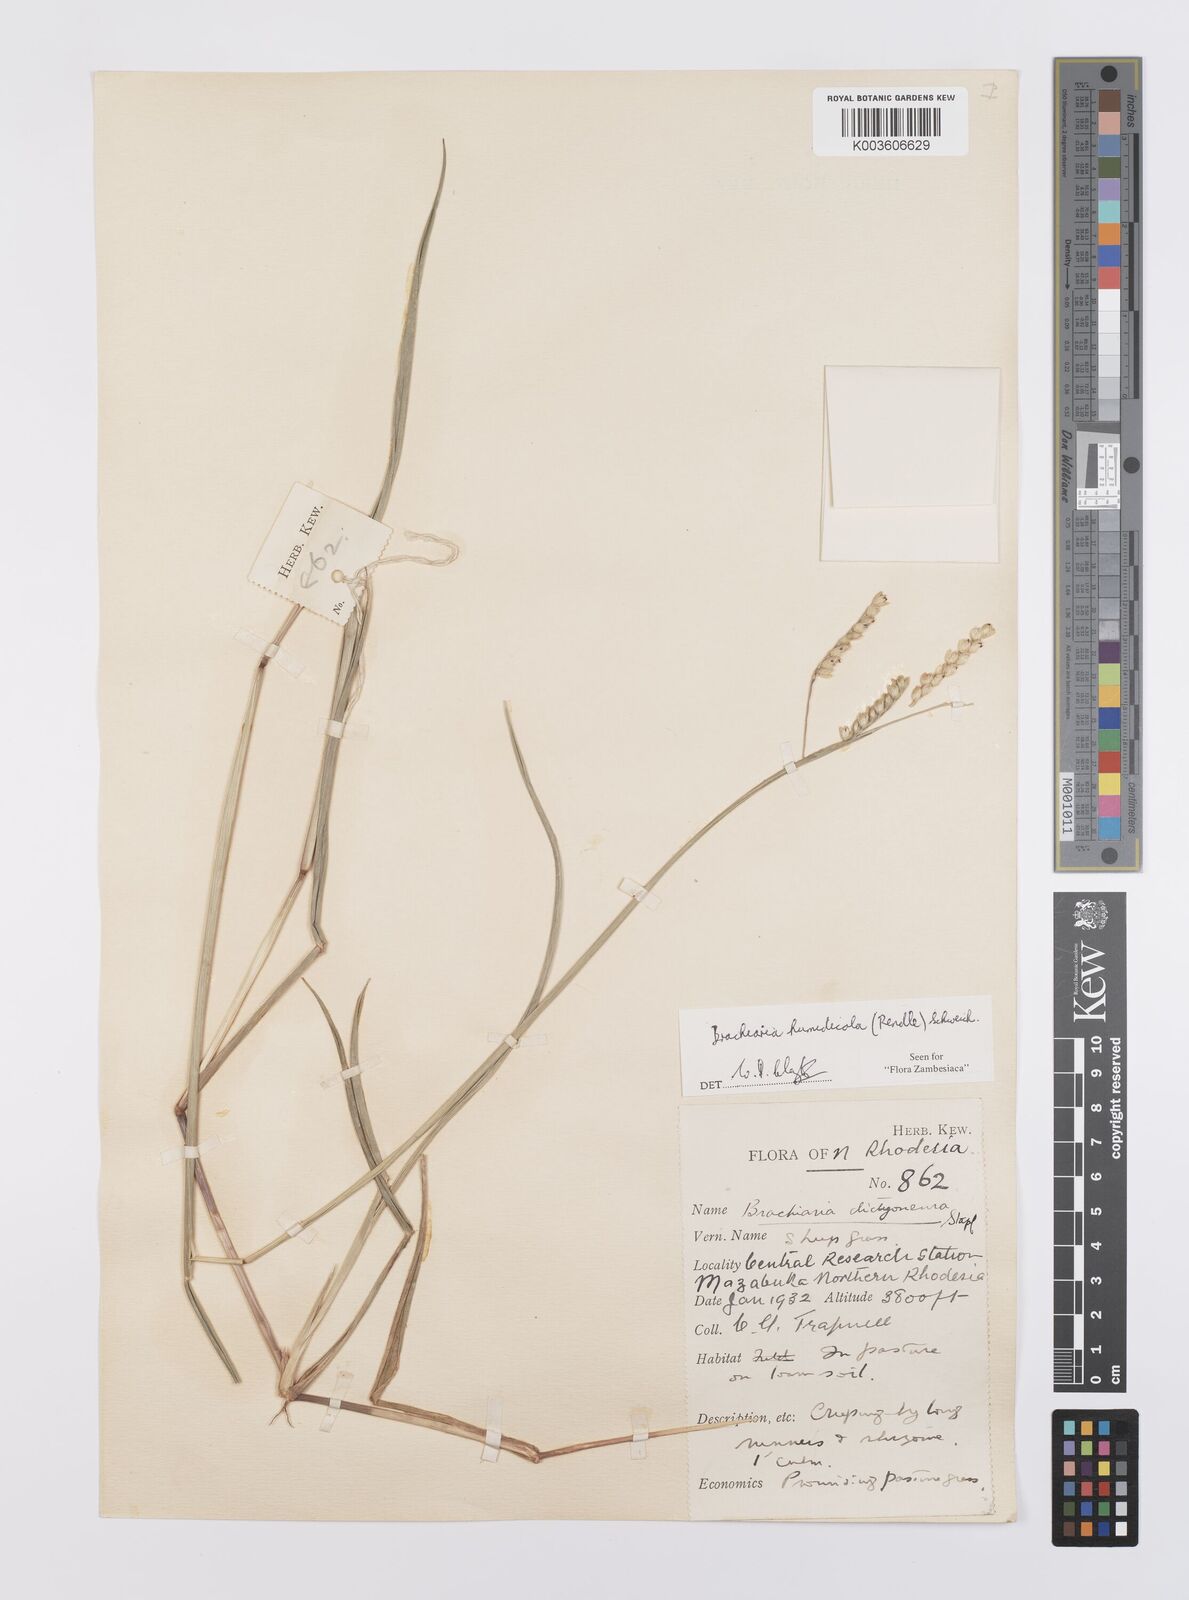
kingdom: Plantae
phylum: Tracheophyta
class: Liliopsida
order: Poales
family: Poaceae
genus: Urochloa
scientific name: Urochloa dictyoneura
